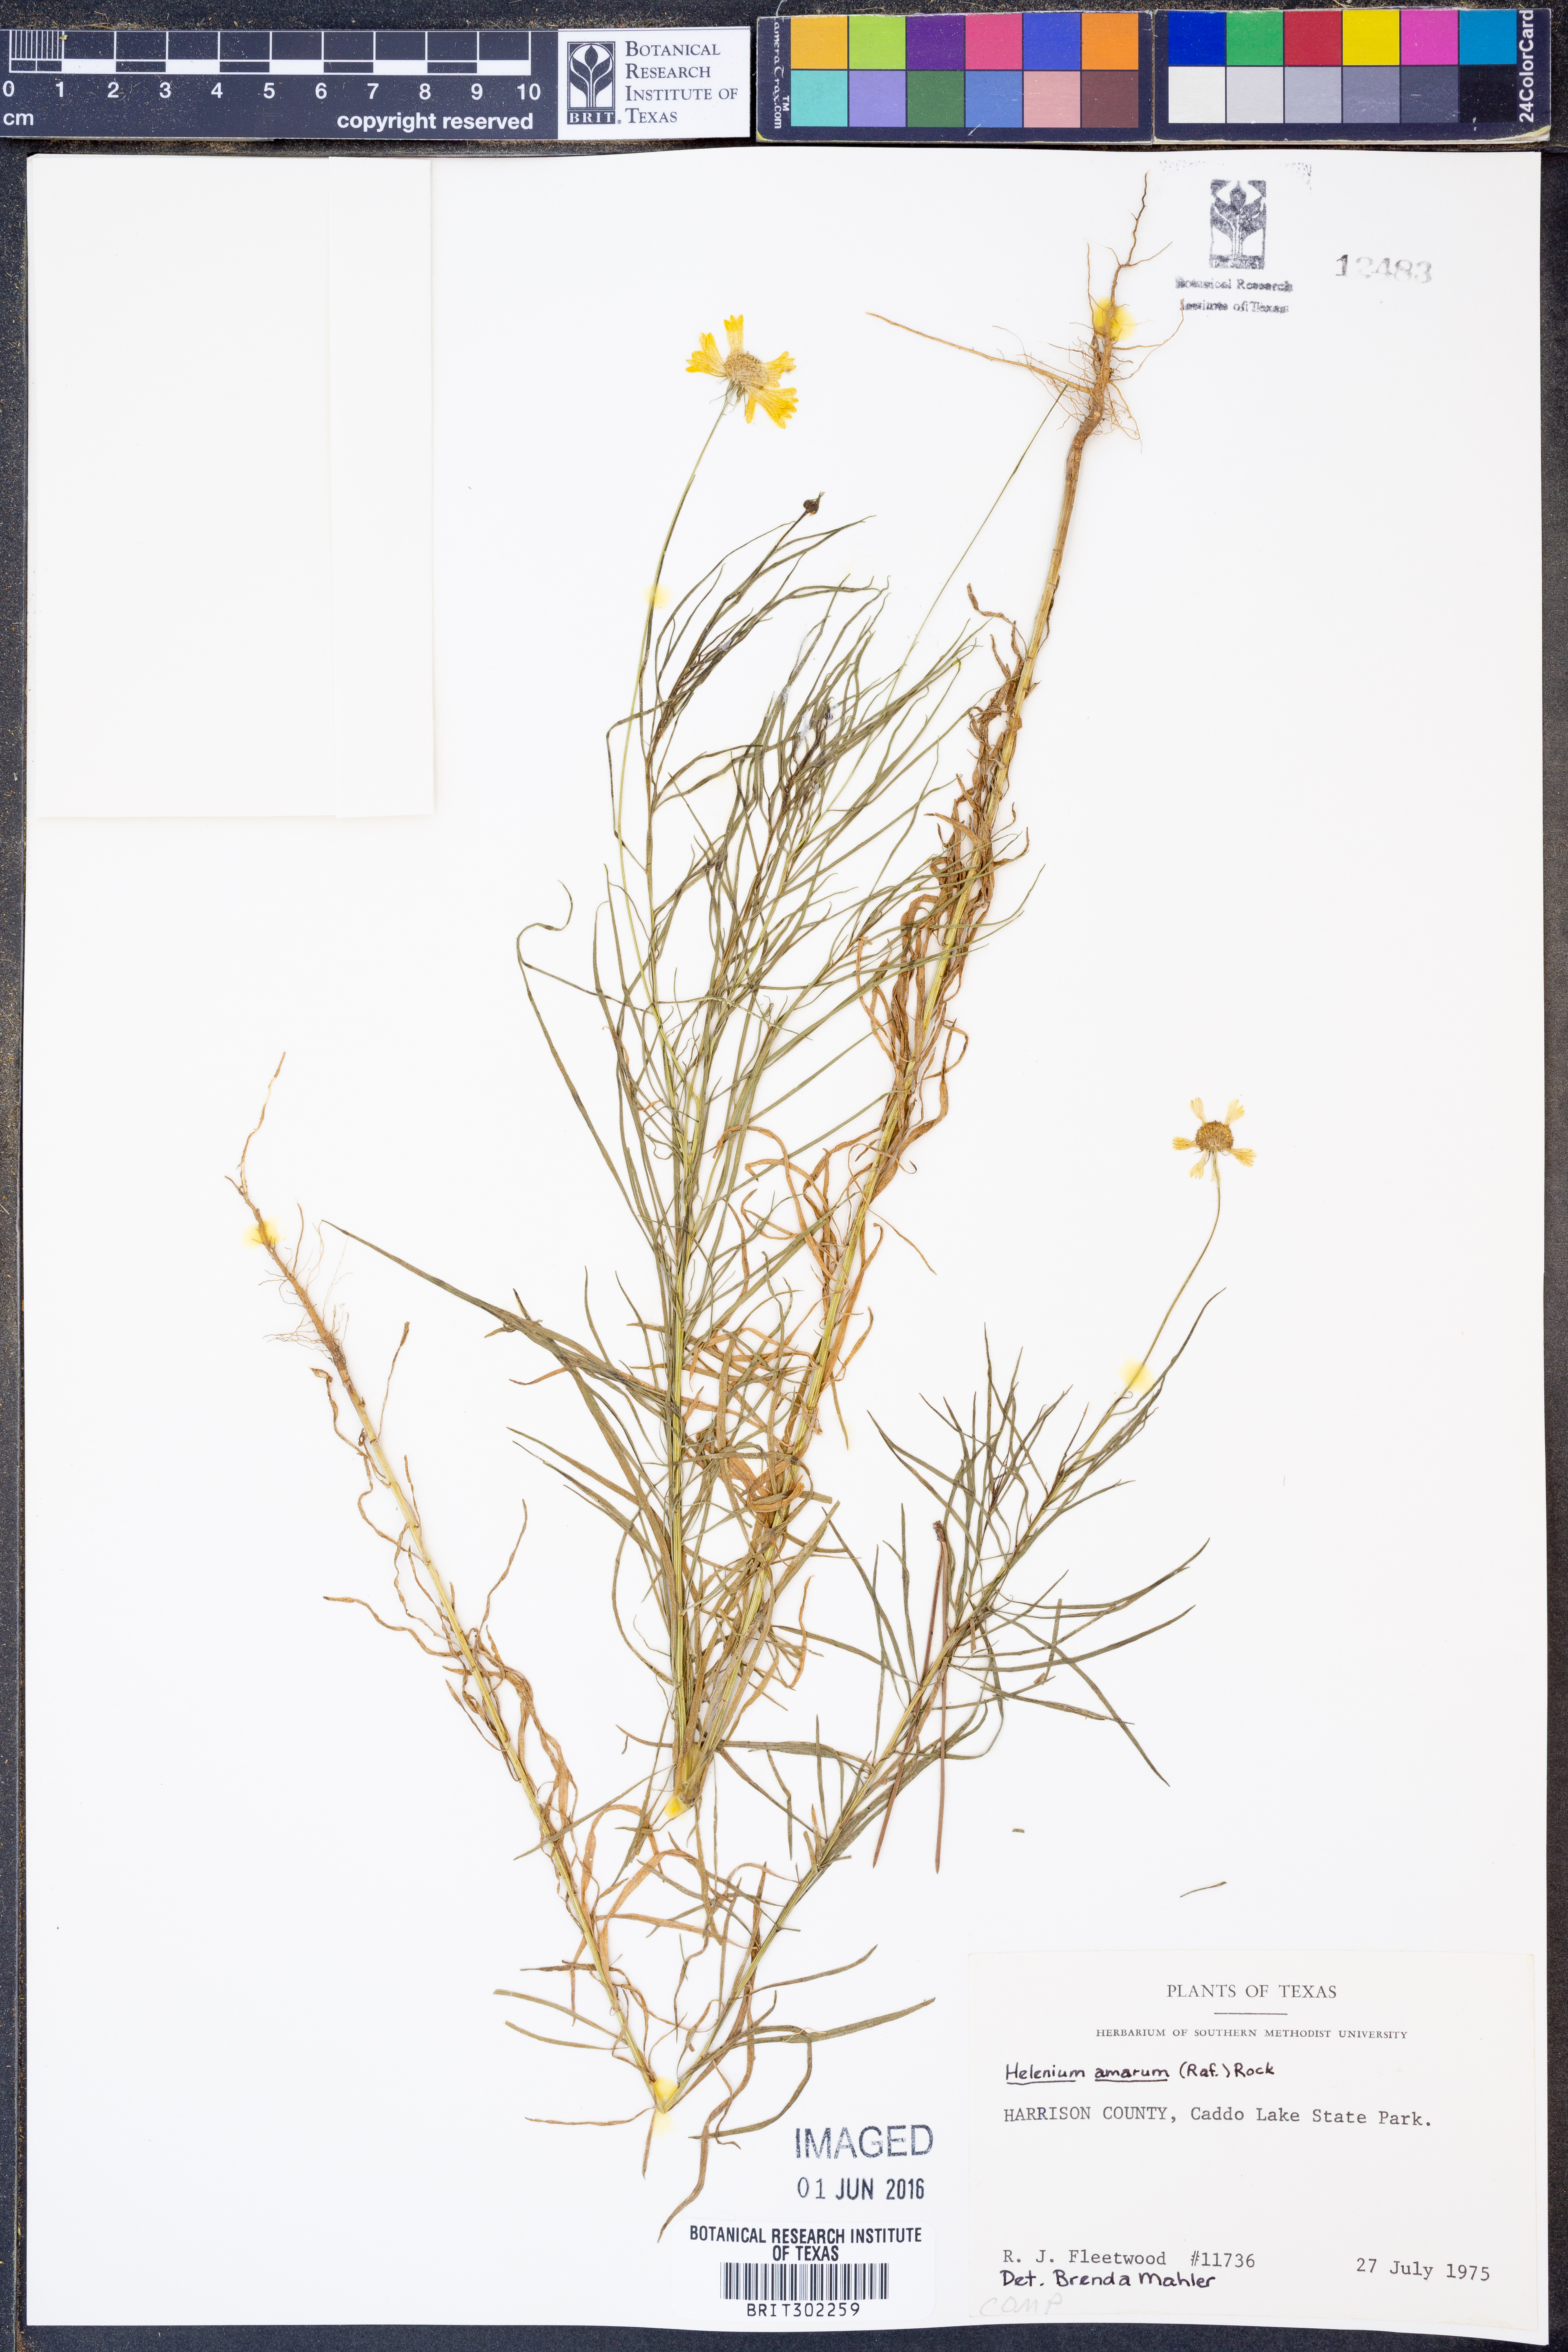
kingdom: Plantae
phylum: Tracheophyta
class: Magnoliopsida
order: Asterales
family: Asteraceae
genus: Helenium
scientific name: Helenium amarum
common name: Bitter sneezeweed
